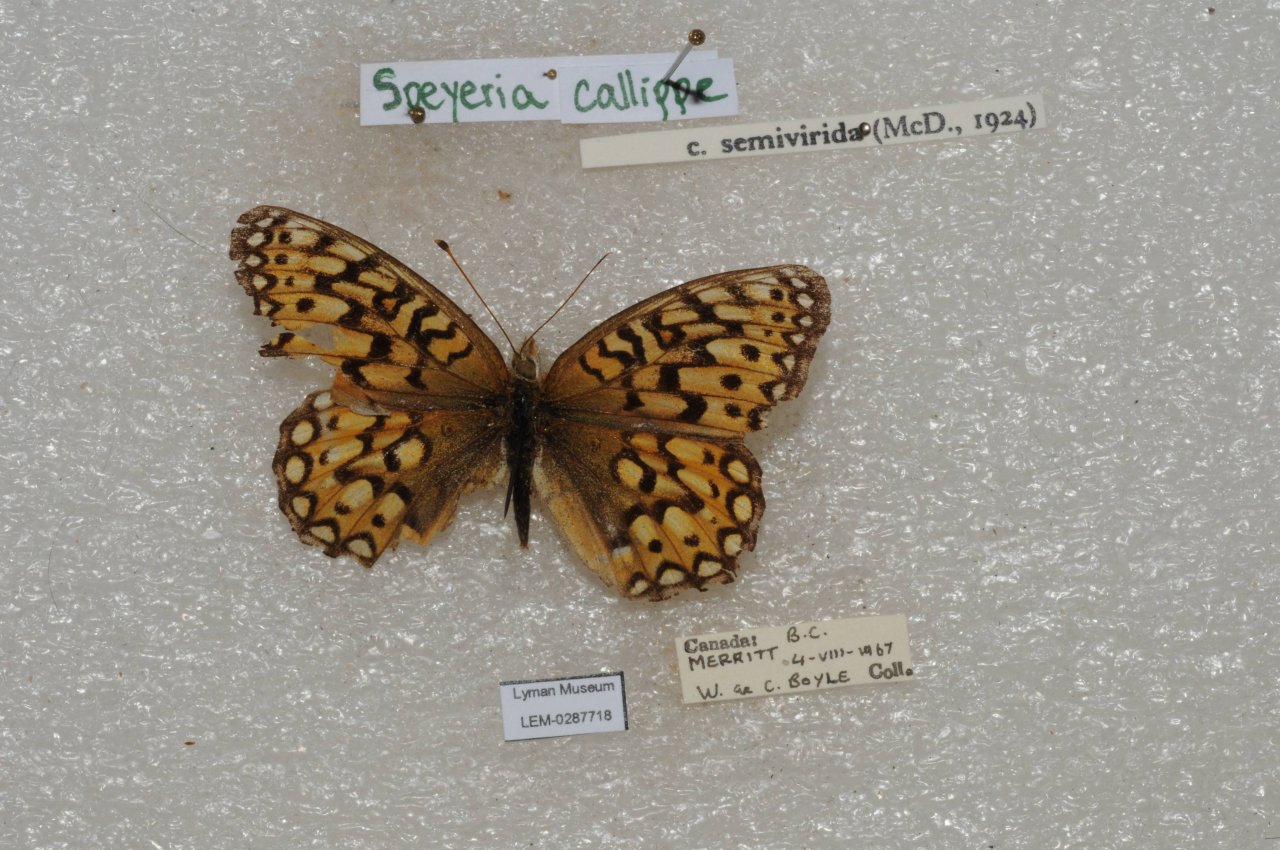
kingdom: Animalia
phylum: Arthropoda
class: Insecta
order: Lepidoptera
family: Nymphalidae
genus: Speyeria
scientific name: Speyeria callippe
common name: Callippe Fritillary
